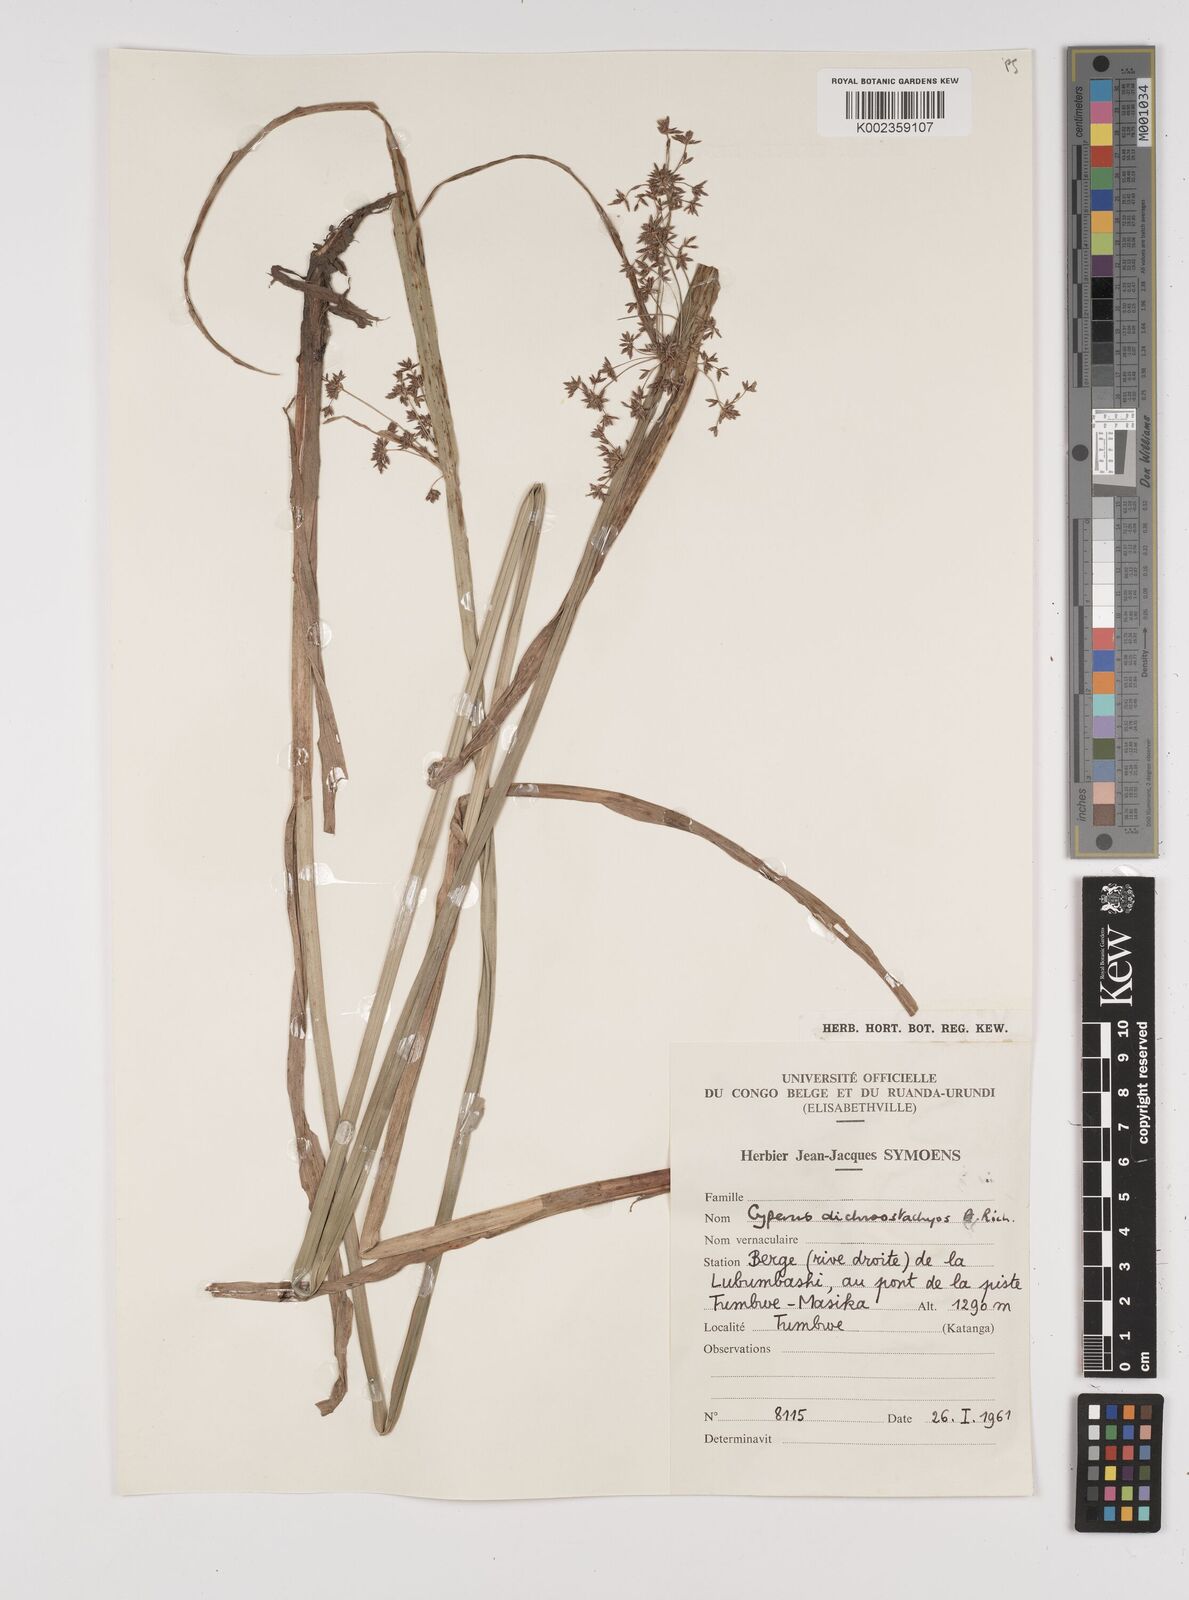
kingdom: Plantae
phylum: Tracheophyta
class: Liliopsida
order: Poales
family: Cyperaceae
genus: Cyperus
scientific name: Cyperus dichrostachyus
